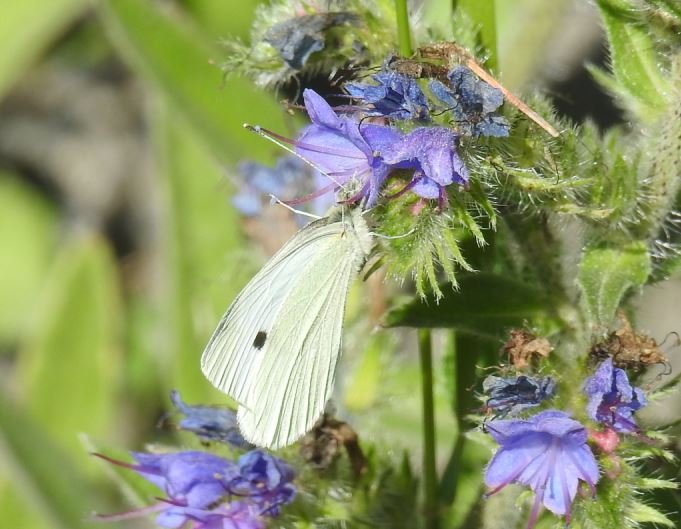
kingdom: Animalia
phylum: Arthropoda
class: Insecta
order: Lepidoptera
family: Pieridae
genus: Pieris
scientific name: Pieris rapae
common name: Cabbage White
